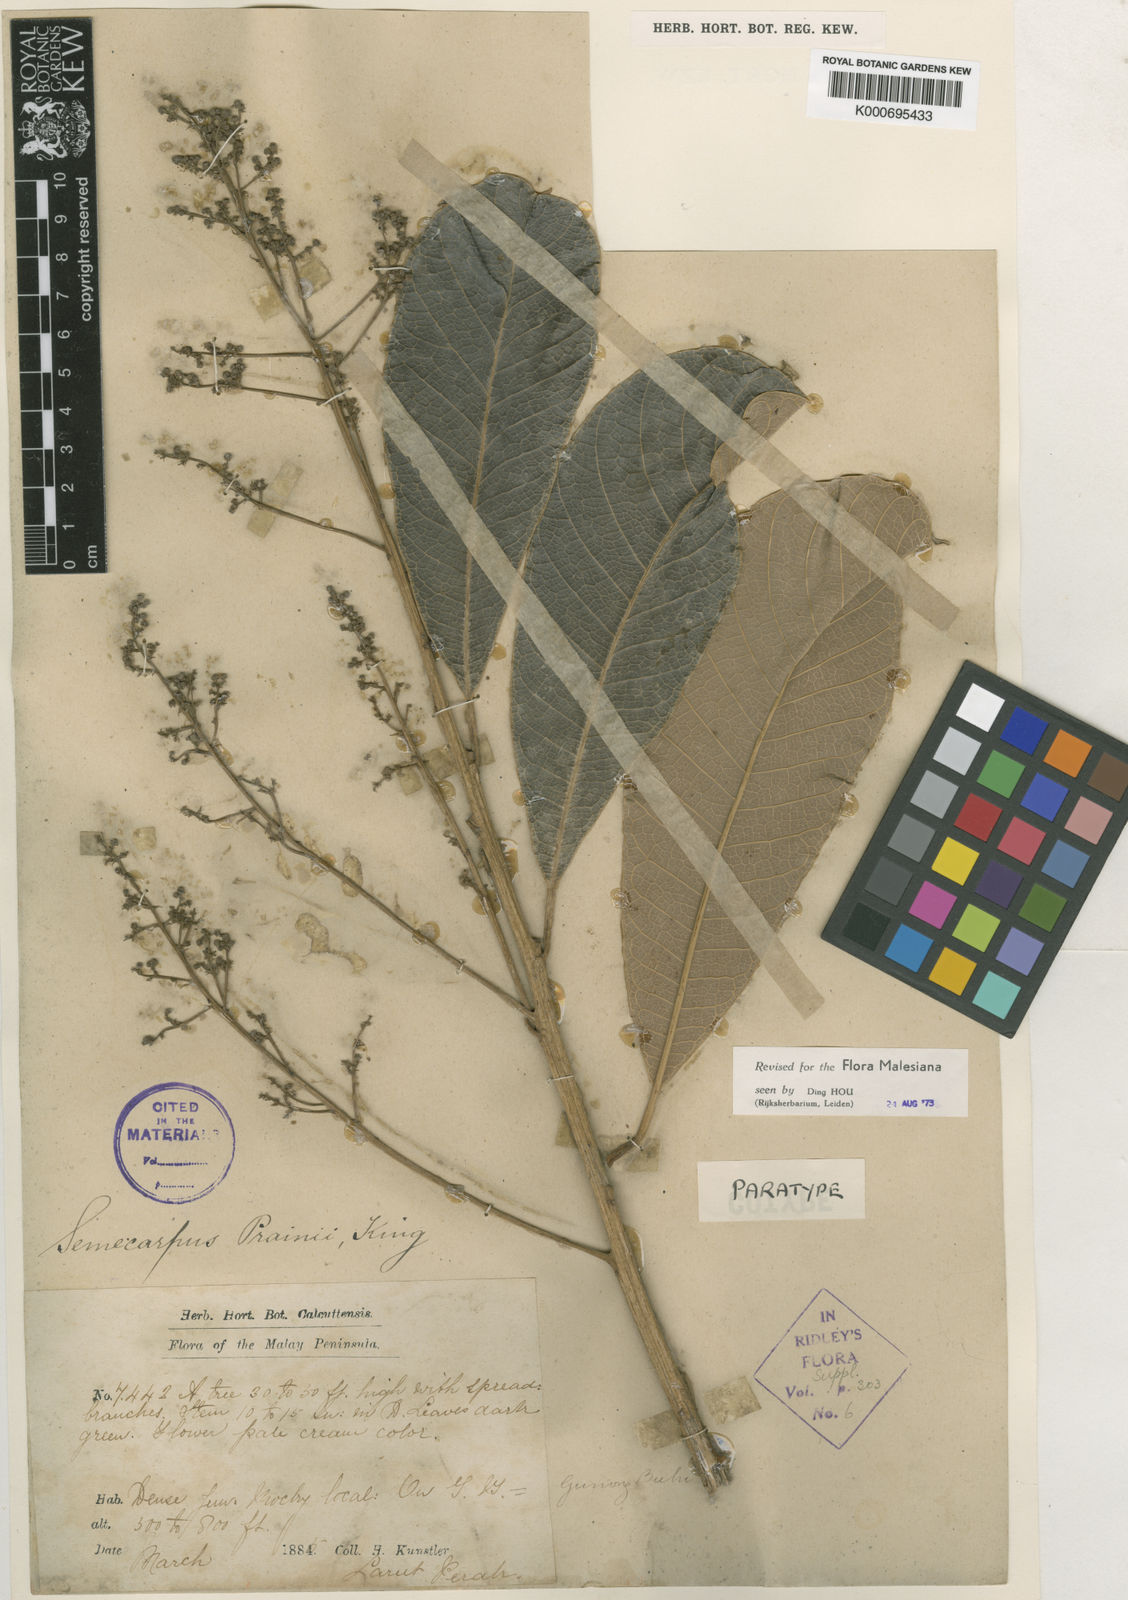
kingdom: Plantae
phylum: Tracheophyta
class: Magnoliopsida
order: Sapindales
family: Anacardiaceae
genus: Semecarpus
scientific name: Semecarpus prainii
